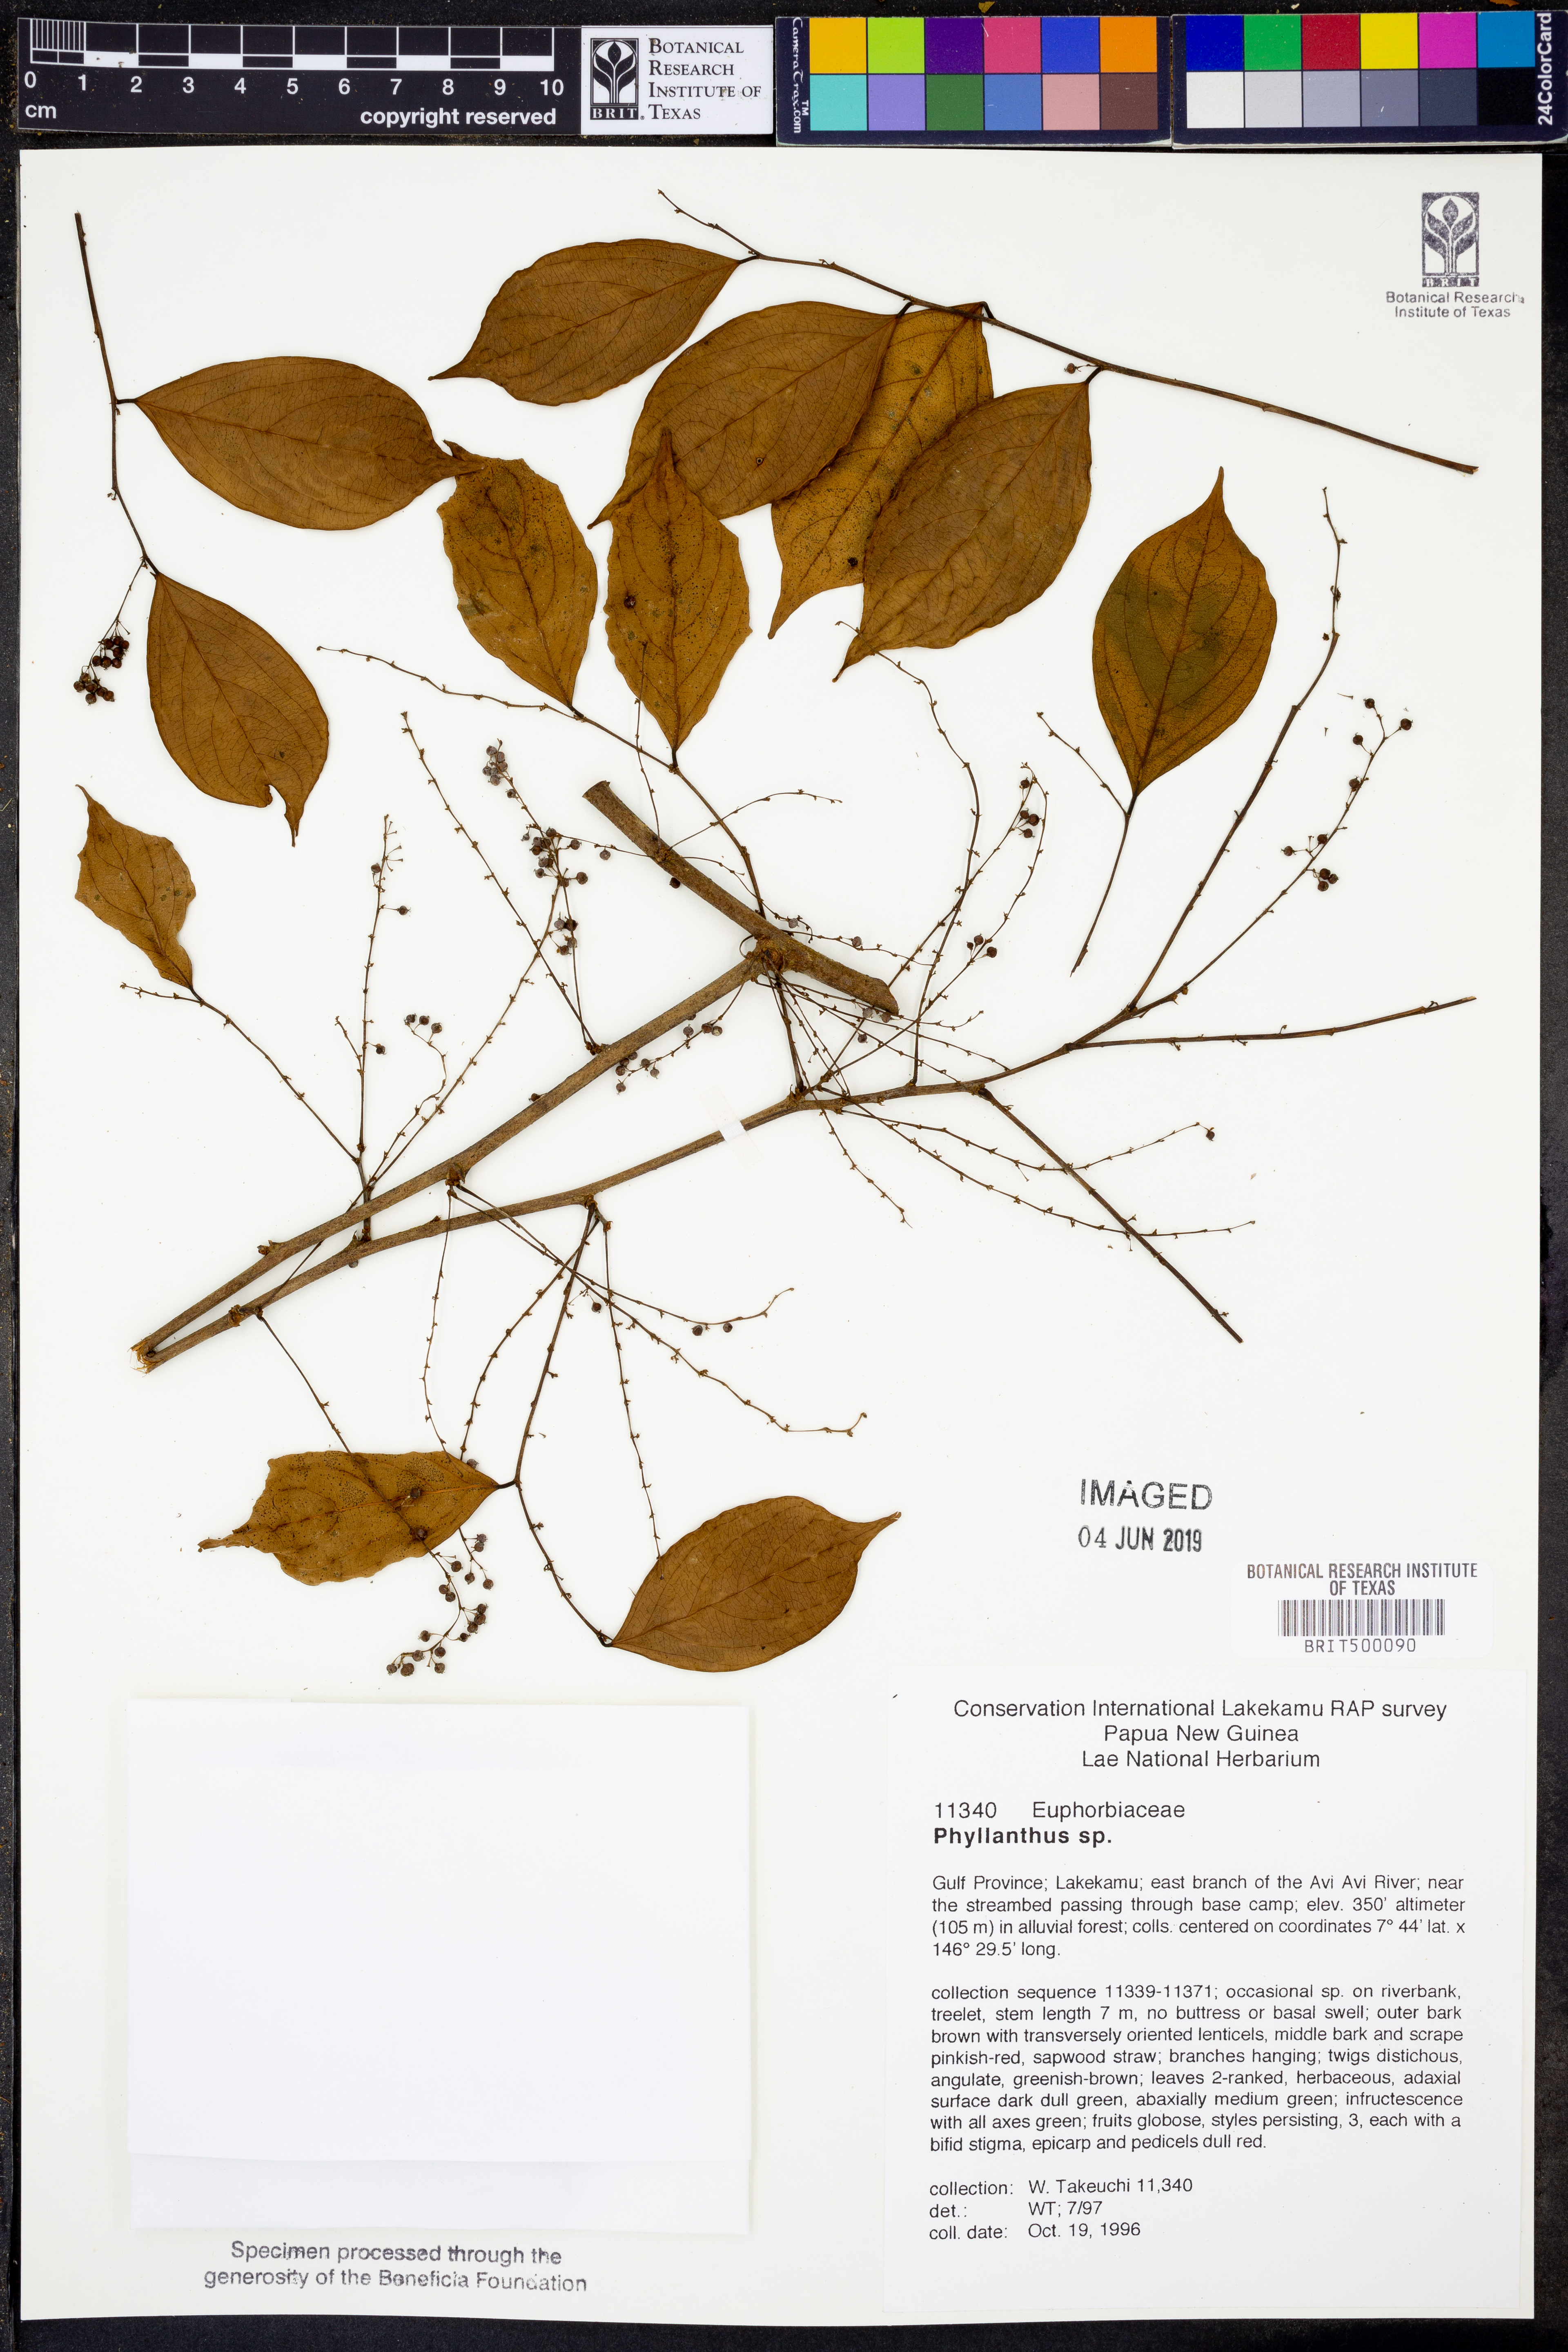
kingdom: Plantae
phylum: Tracheophyta
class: Magnoliopsida
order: Malpighiales
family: Phyllanthaceae
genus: Phyllanthus
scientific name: Phyllanthus
